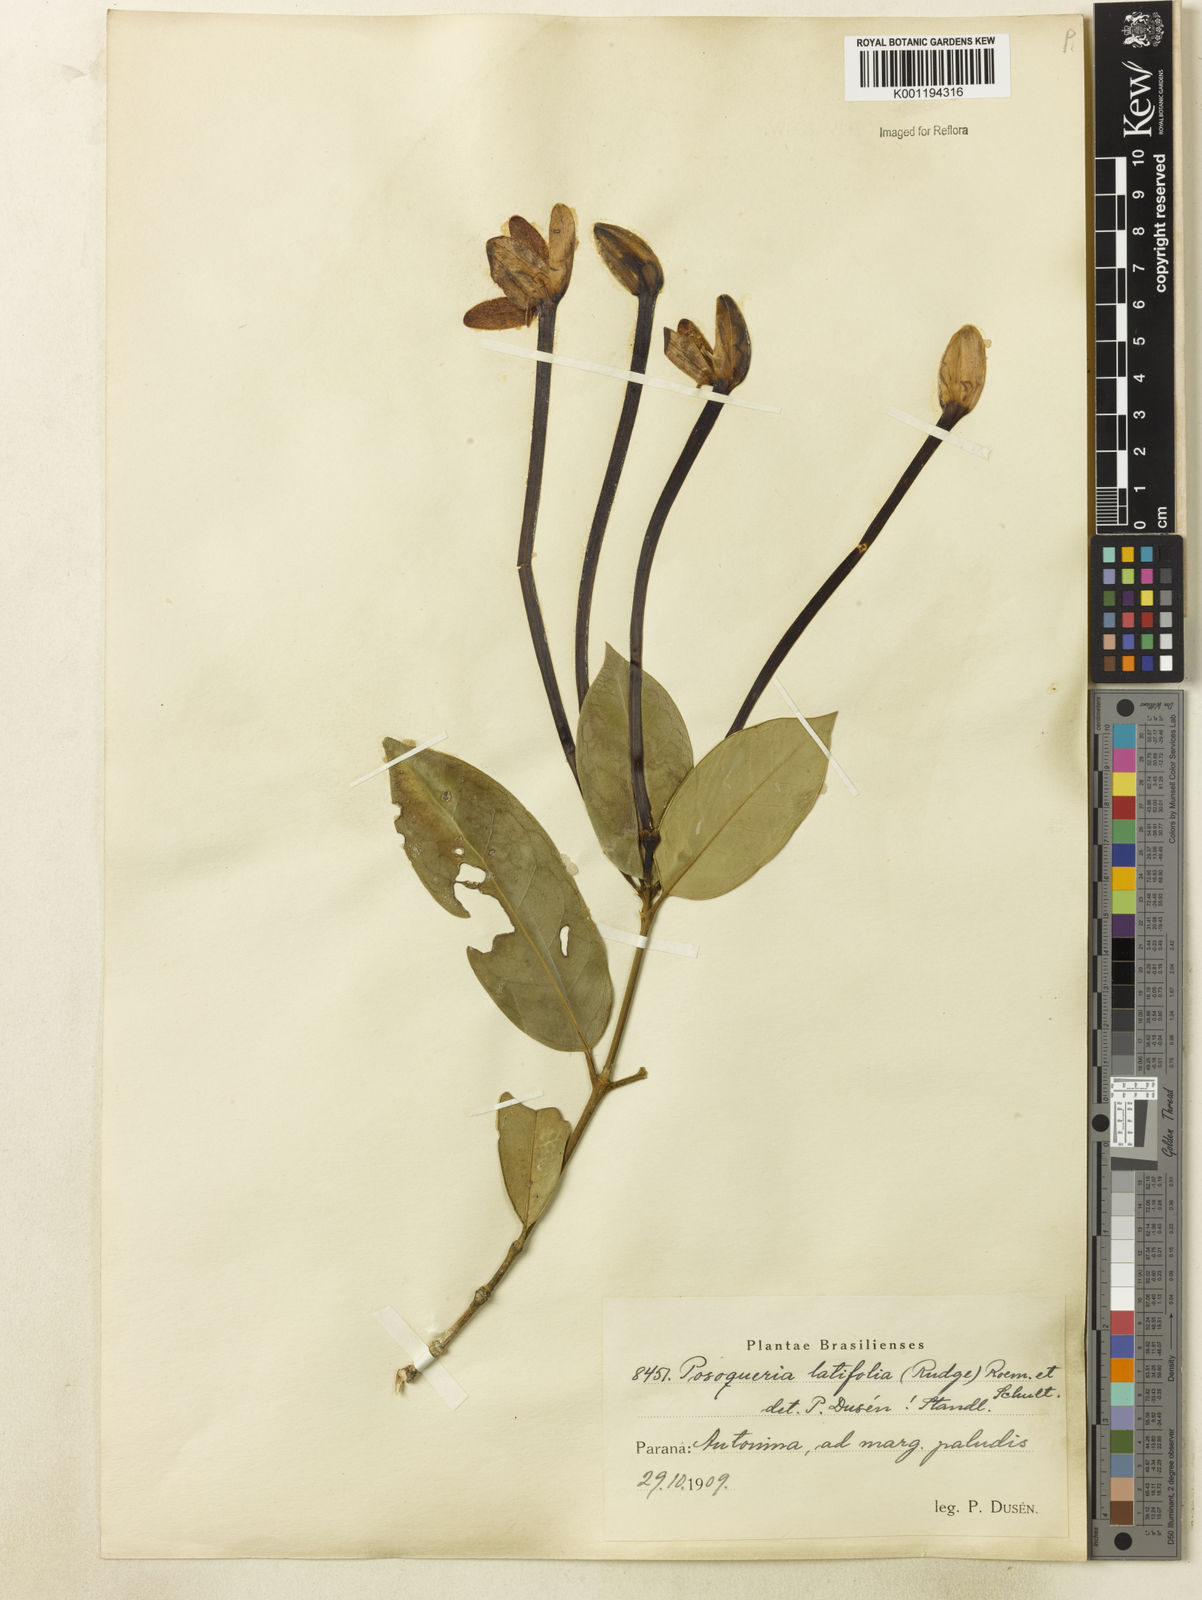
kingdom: Plantae
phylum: Tracheophyta
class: Magnoliopsida
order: Gentianales
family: Rubiaceae
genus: Posoqueria
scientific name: Posoqueria latifolia
